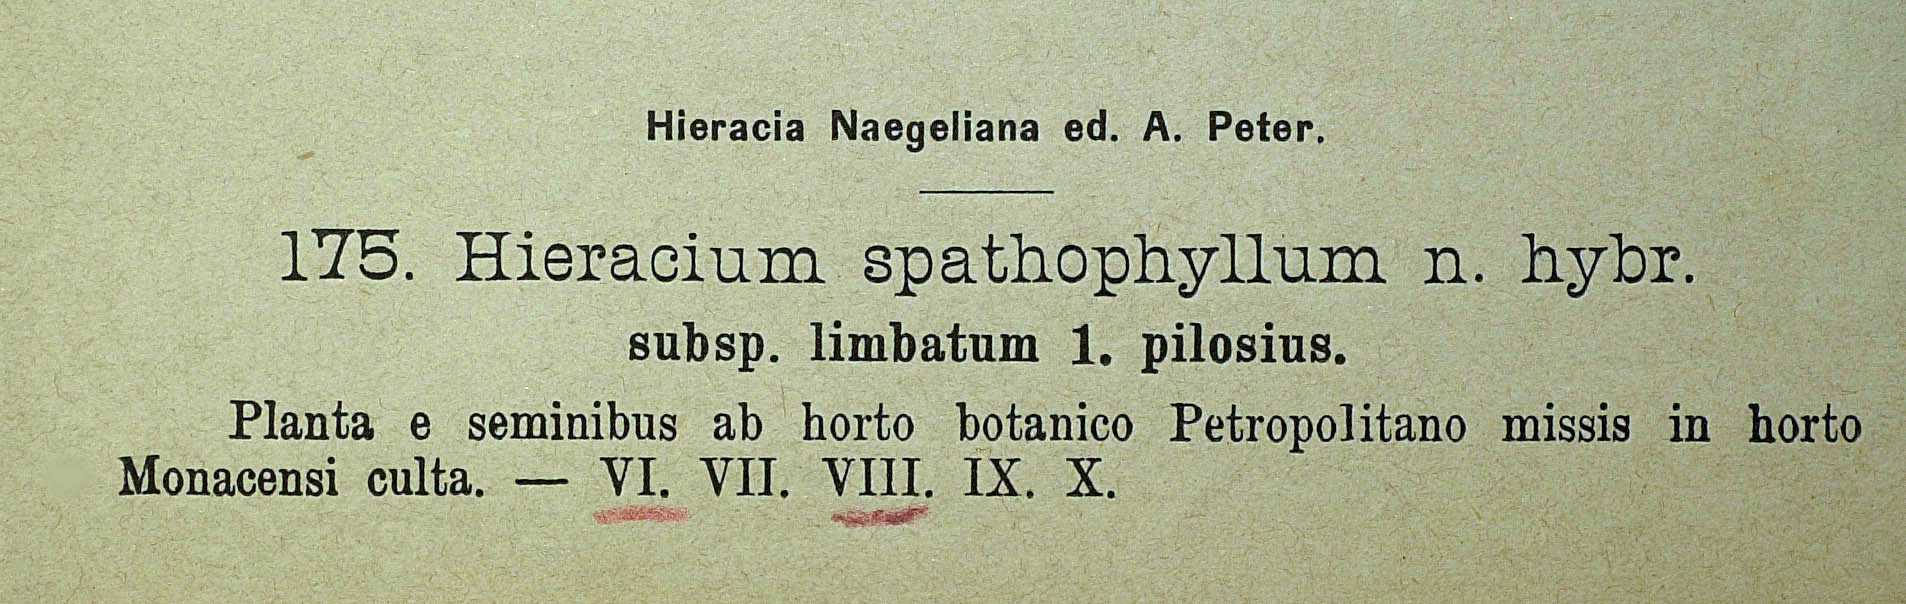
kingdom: Plantae
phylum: Tracheophyta
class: Magnoliopsida
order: Asterales
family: Asteraceae
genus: Pilosella
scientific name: Pilosella longiscapa
